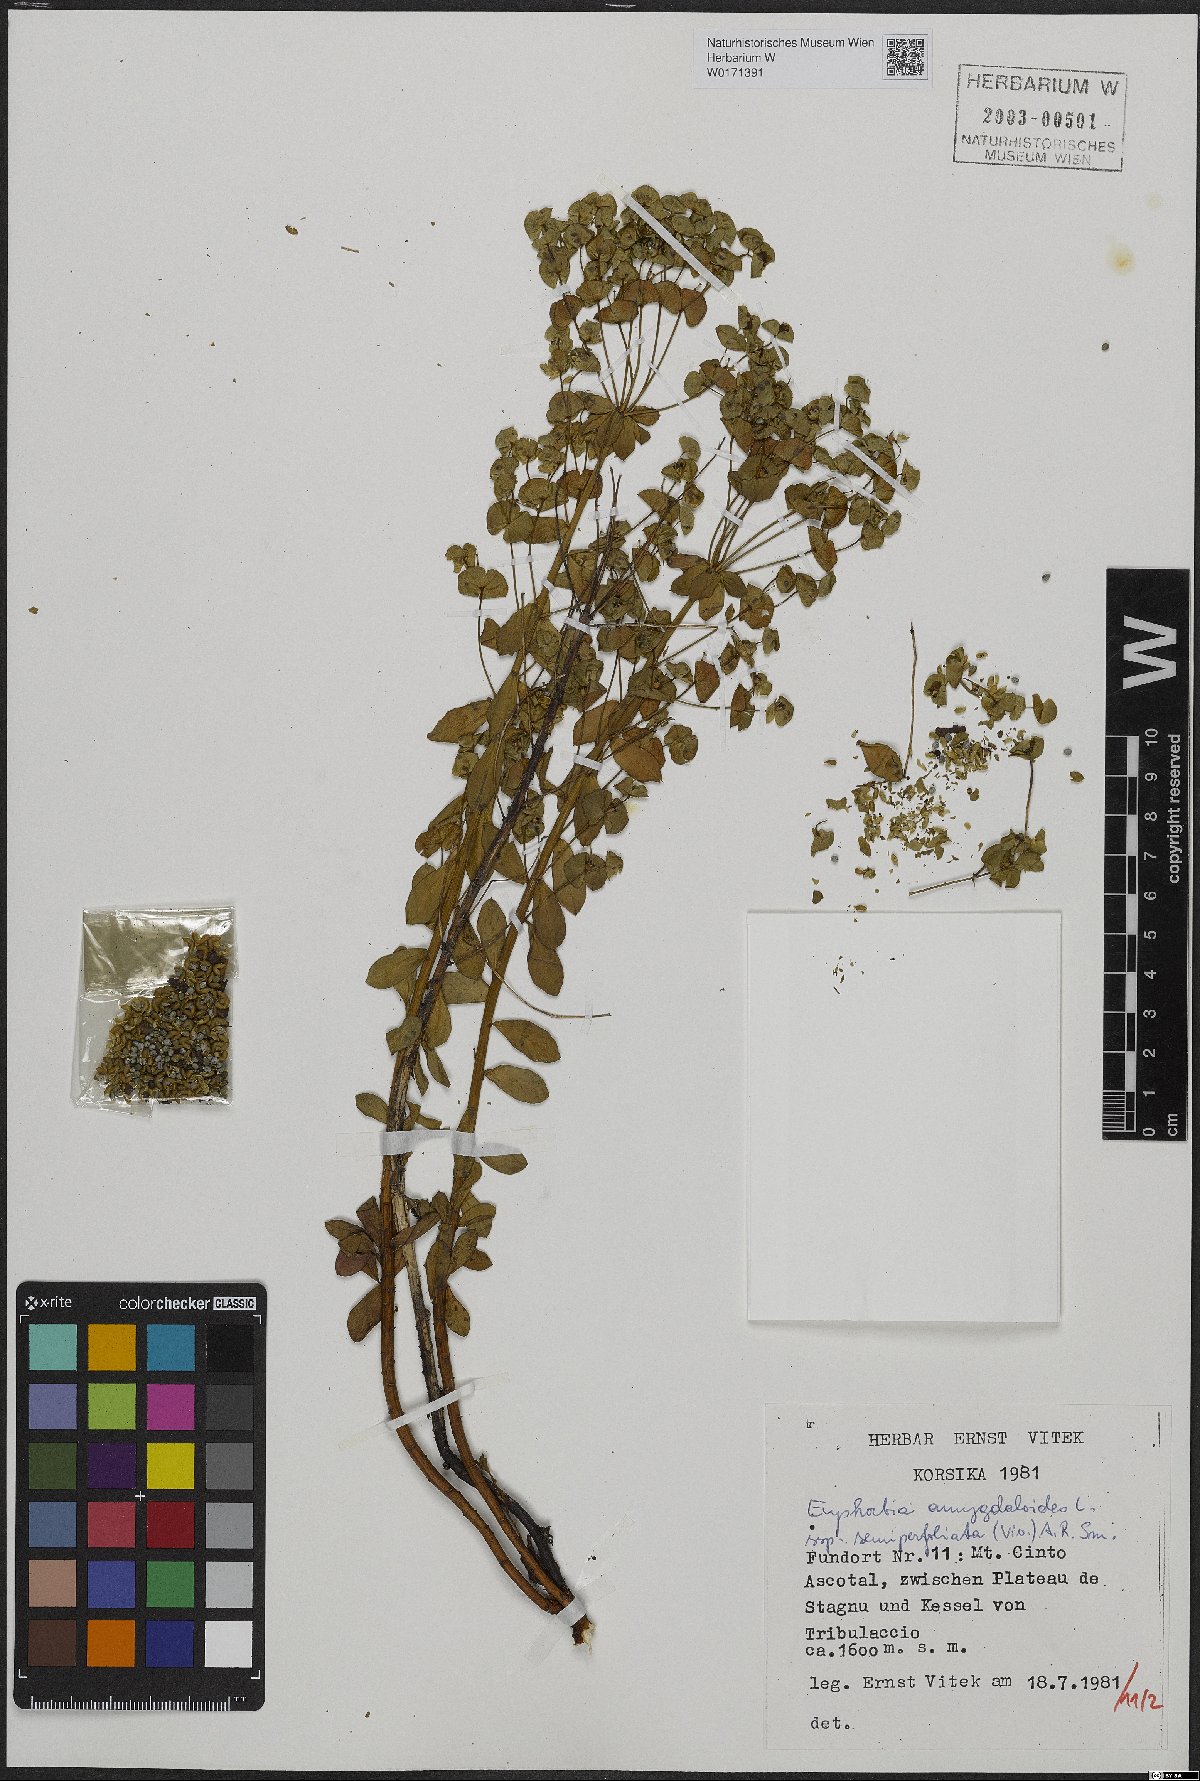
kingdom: Plantae
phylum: Tracheophyta
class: Magnoliopsida
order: Malpighiales
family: Euphorbiaceae
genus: Euphorbia
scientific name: Euphorbia semiperfoliata
